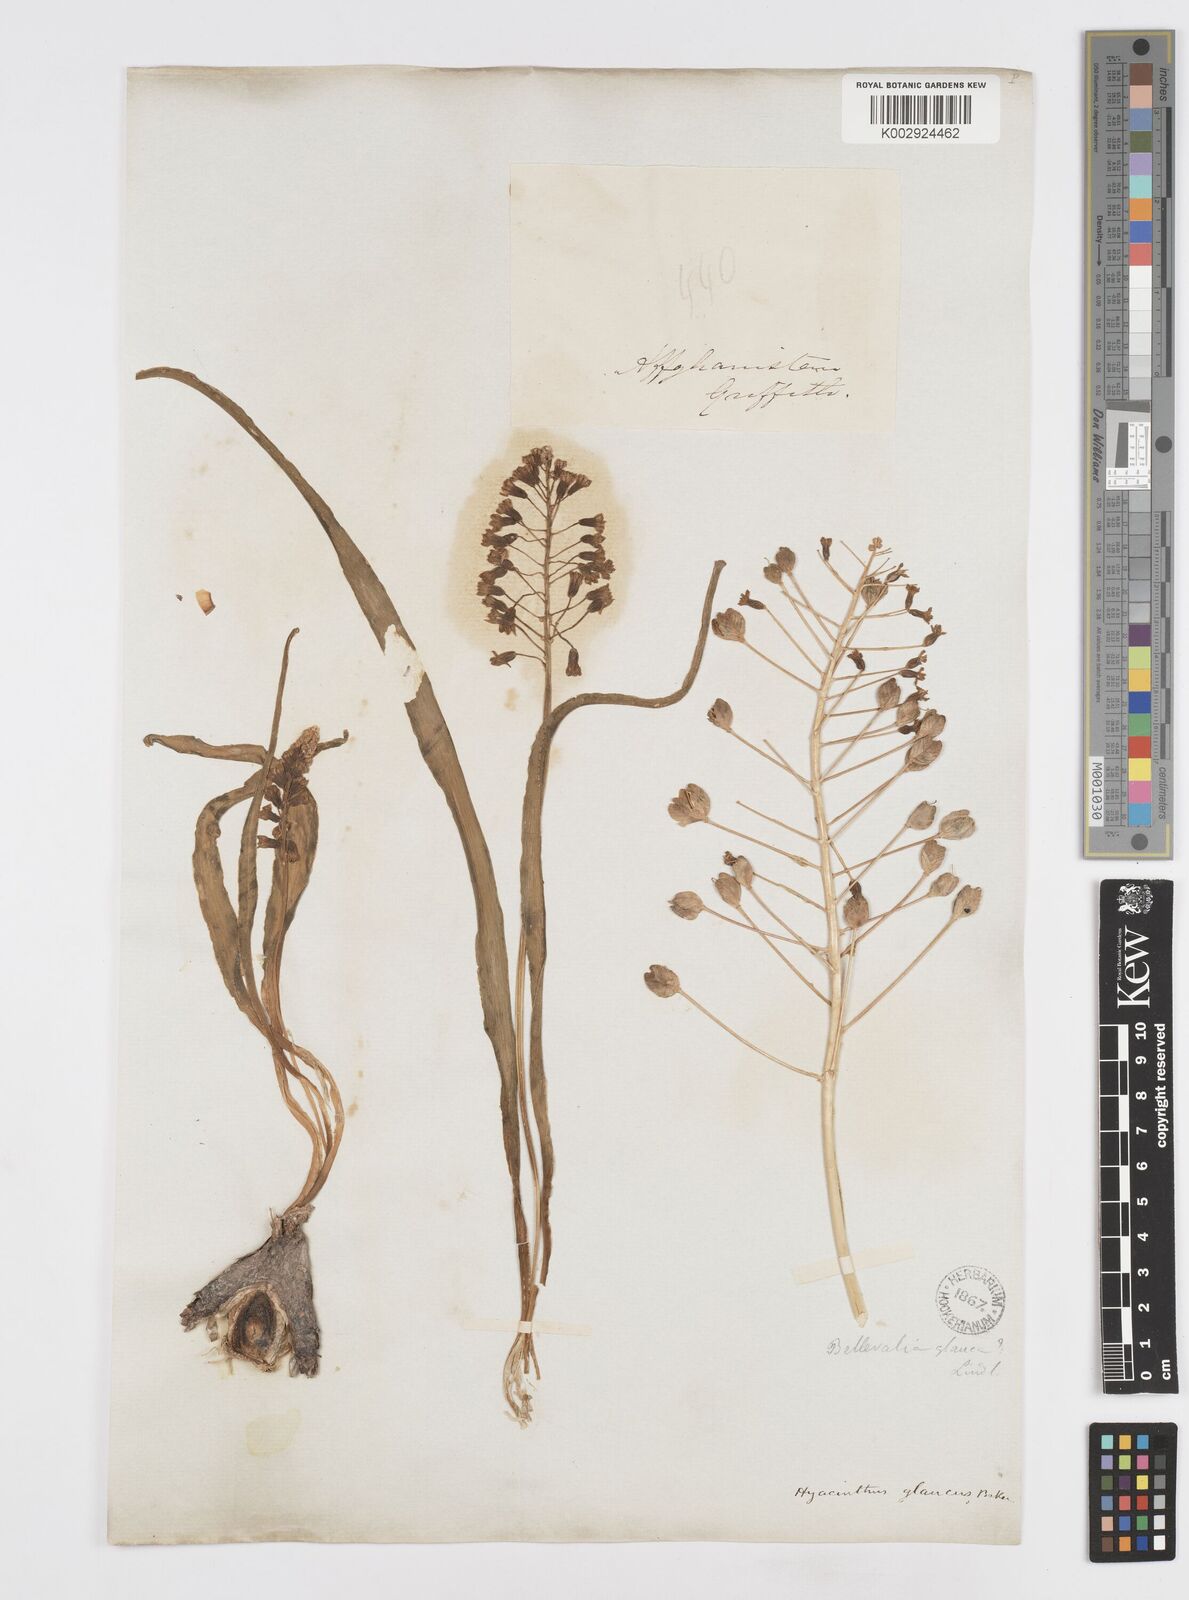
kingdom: Plantae
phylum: Tracheophyta
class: Liliopsida
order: Asparagales
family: Asparagaceae
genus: Bellevalia
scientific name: Bellevalia saviczii
